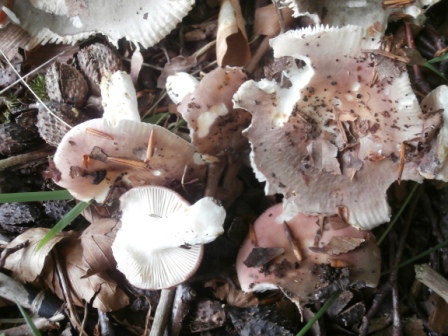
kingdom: Fungi
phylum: Basidiomycota
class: Agaricomycetes
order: Russulales
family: Russulaceae
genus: Russula
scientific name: Russula vesca
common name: spiselig skørhat
